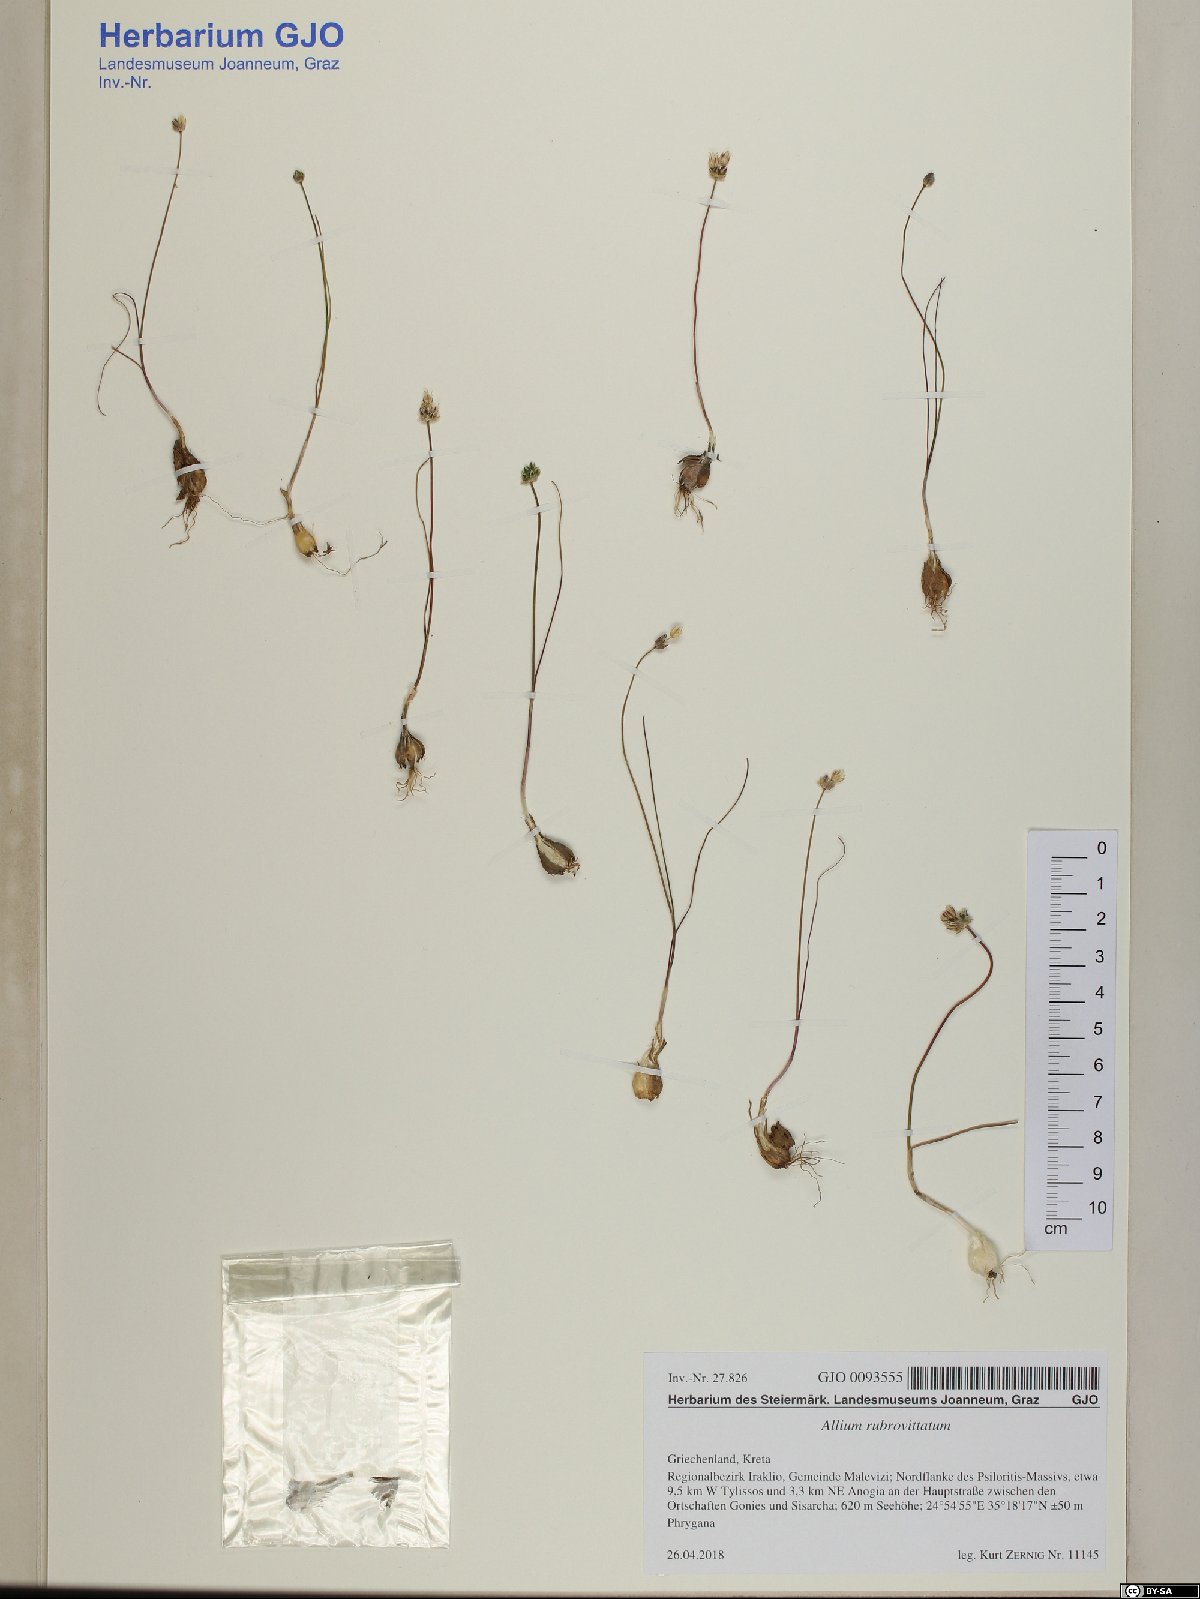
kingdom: Plantae
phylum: Tracheophyta
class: Liliopsida
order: Asparagales
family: Amaryllidaceae
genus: Allium
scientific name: Allium rubrovittatum
